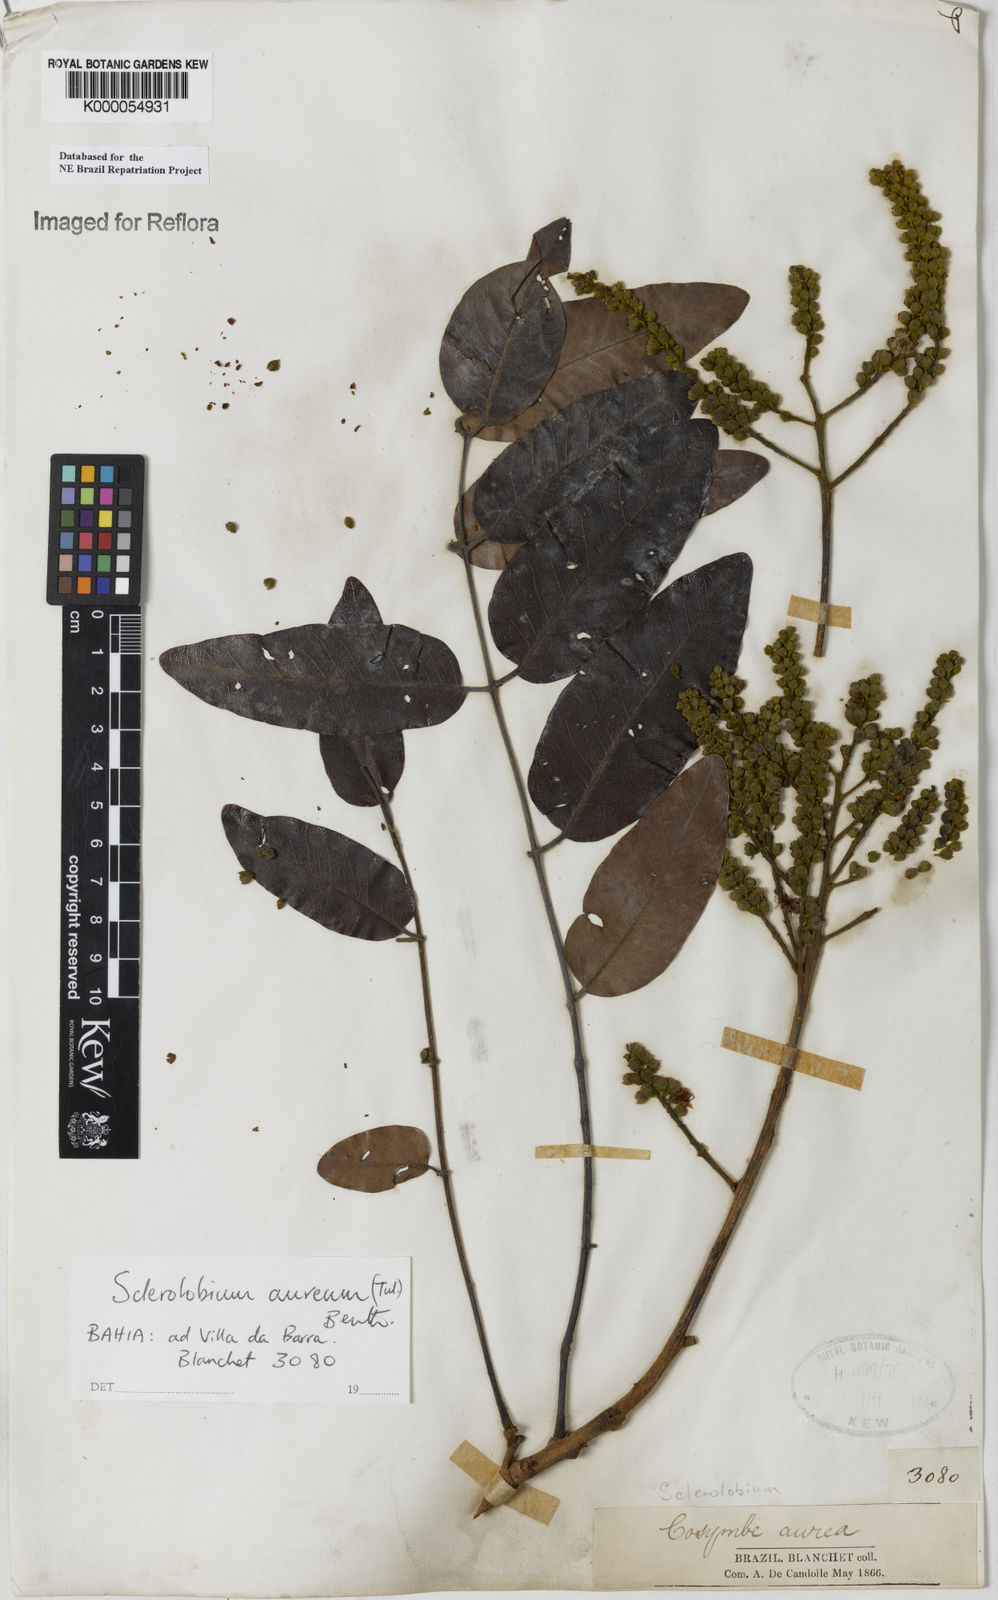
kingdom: Plantae
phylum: Tracheophyta
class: Magnoliopsida
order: Fabales
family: Fabaceae
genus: Tachigali
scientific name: Tachigali
